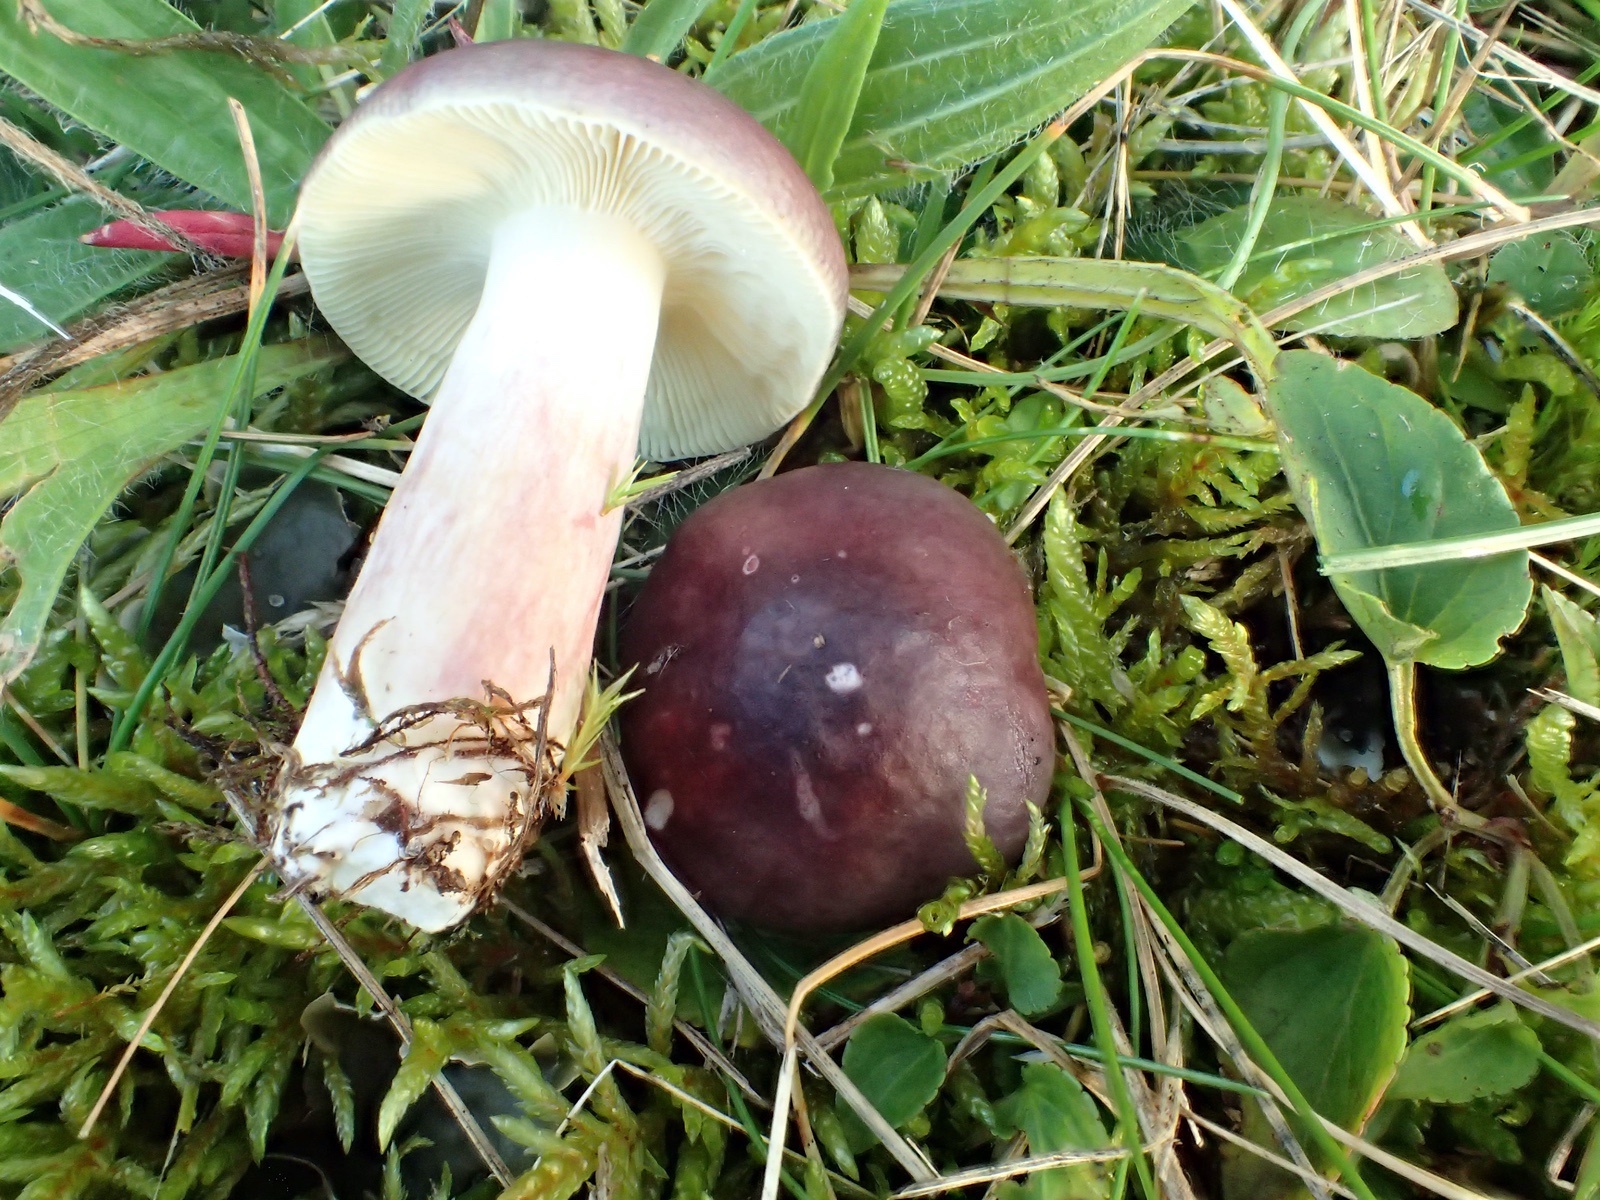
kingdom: Fungi
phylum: Basidiomycota
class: Agaricomycetes
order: Russulales
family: Russulaceae
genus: Russula
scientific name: Russula
